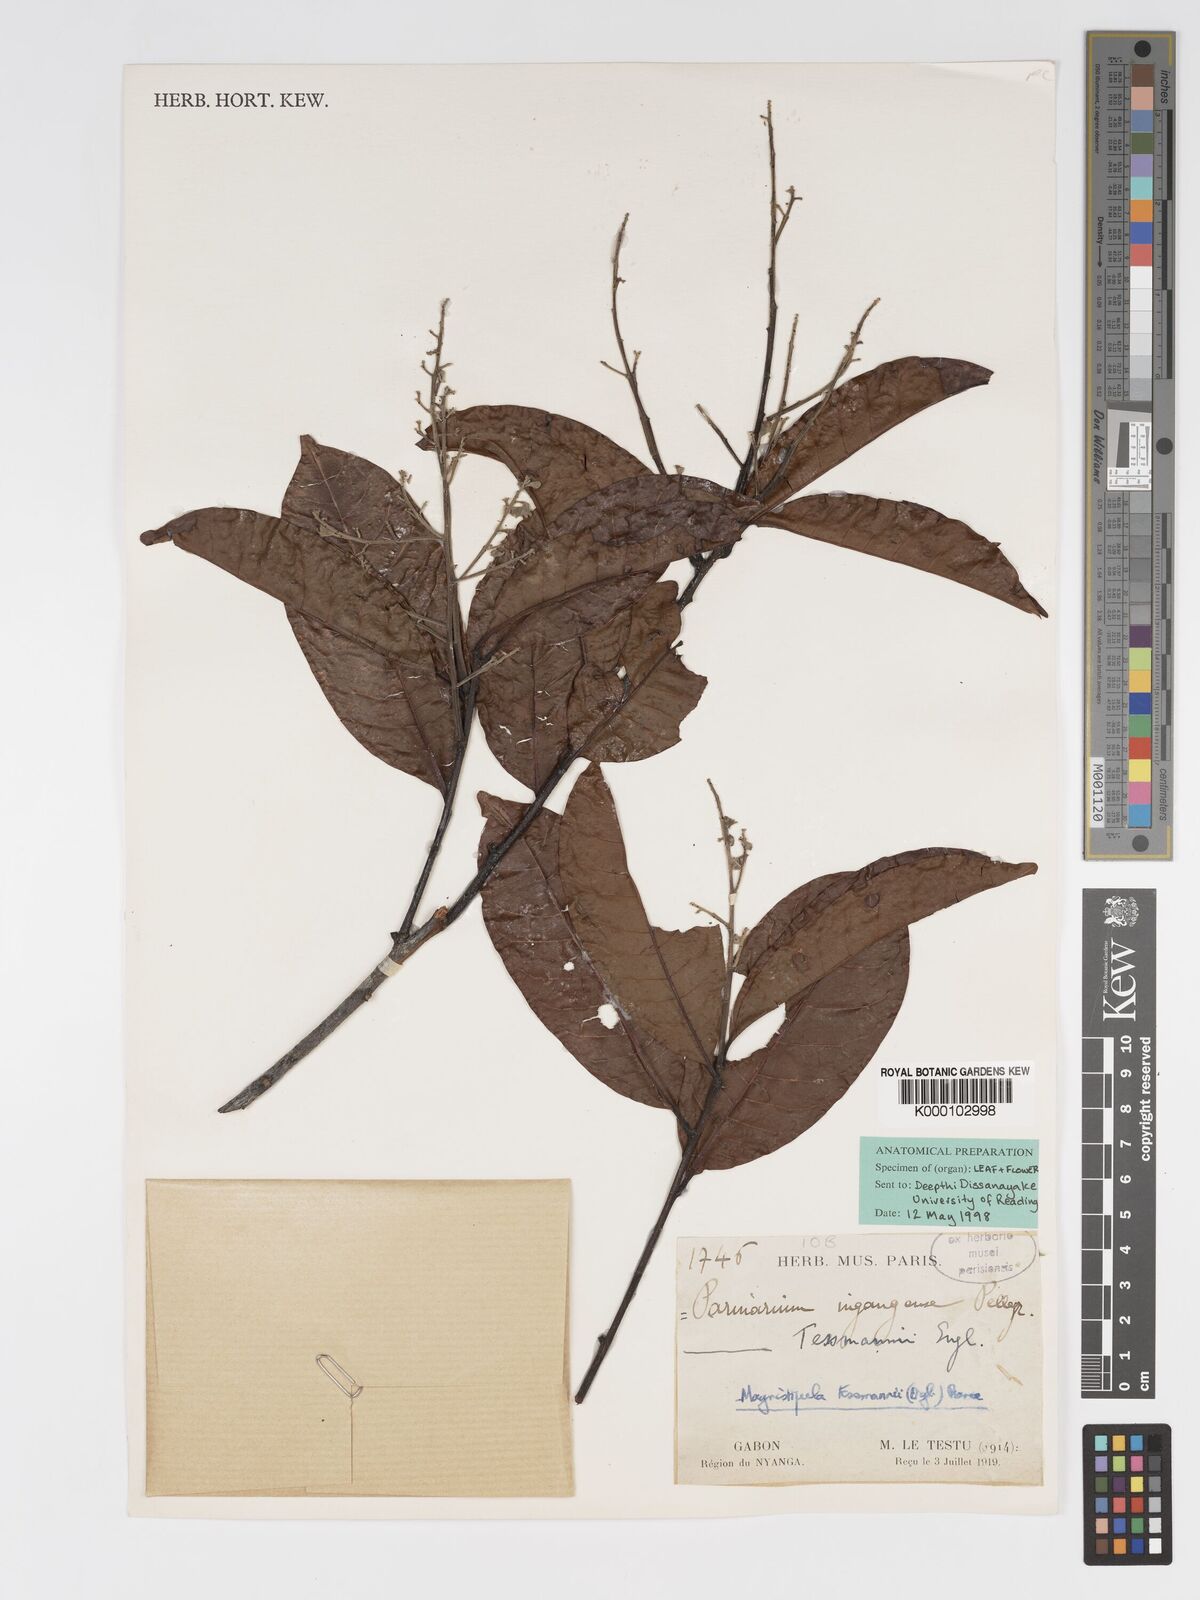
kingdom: Plantae
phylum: Tracheophyta
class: Magnoliopsida
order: Malpighiales
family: Chrysobalanaceae
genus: Magnistipula
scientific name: Magnistipula tessmannii
